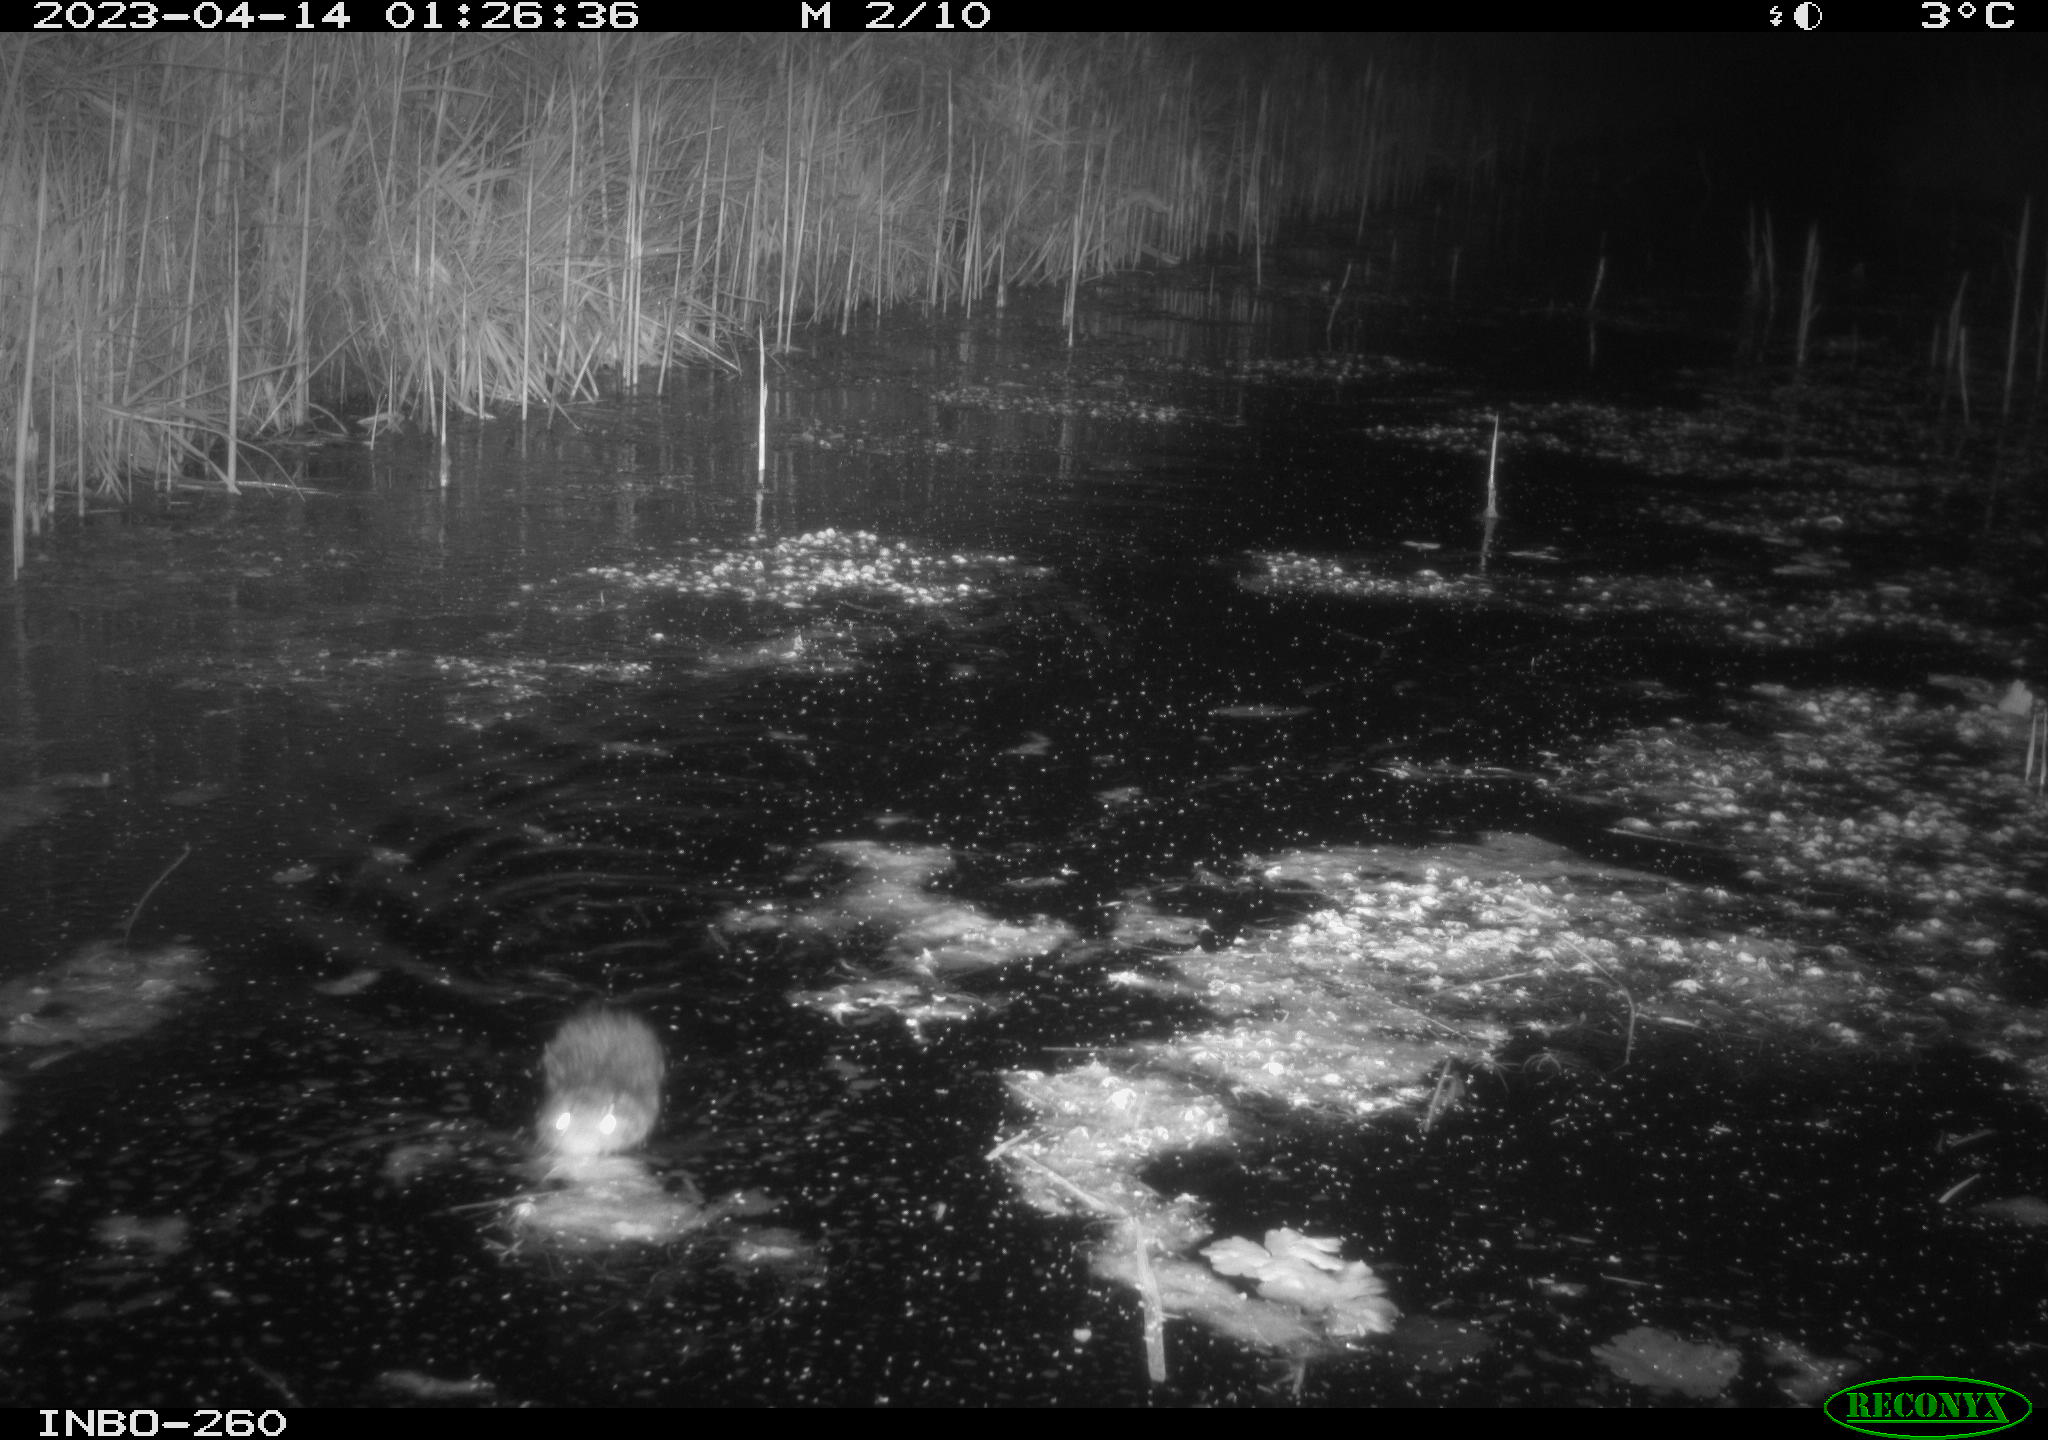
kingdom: Animalia
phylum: Chordata
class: Mammalia
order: Rodentia
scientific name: Rodentia
